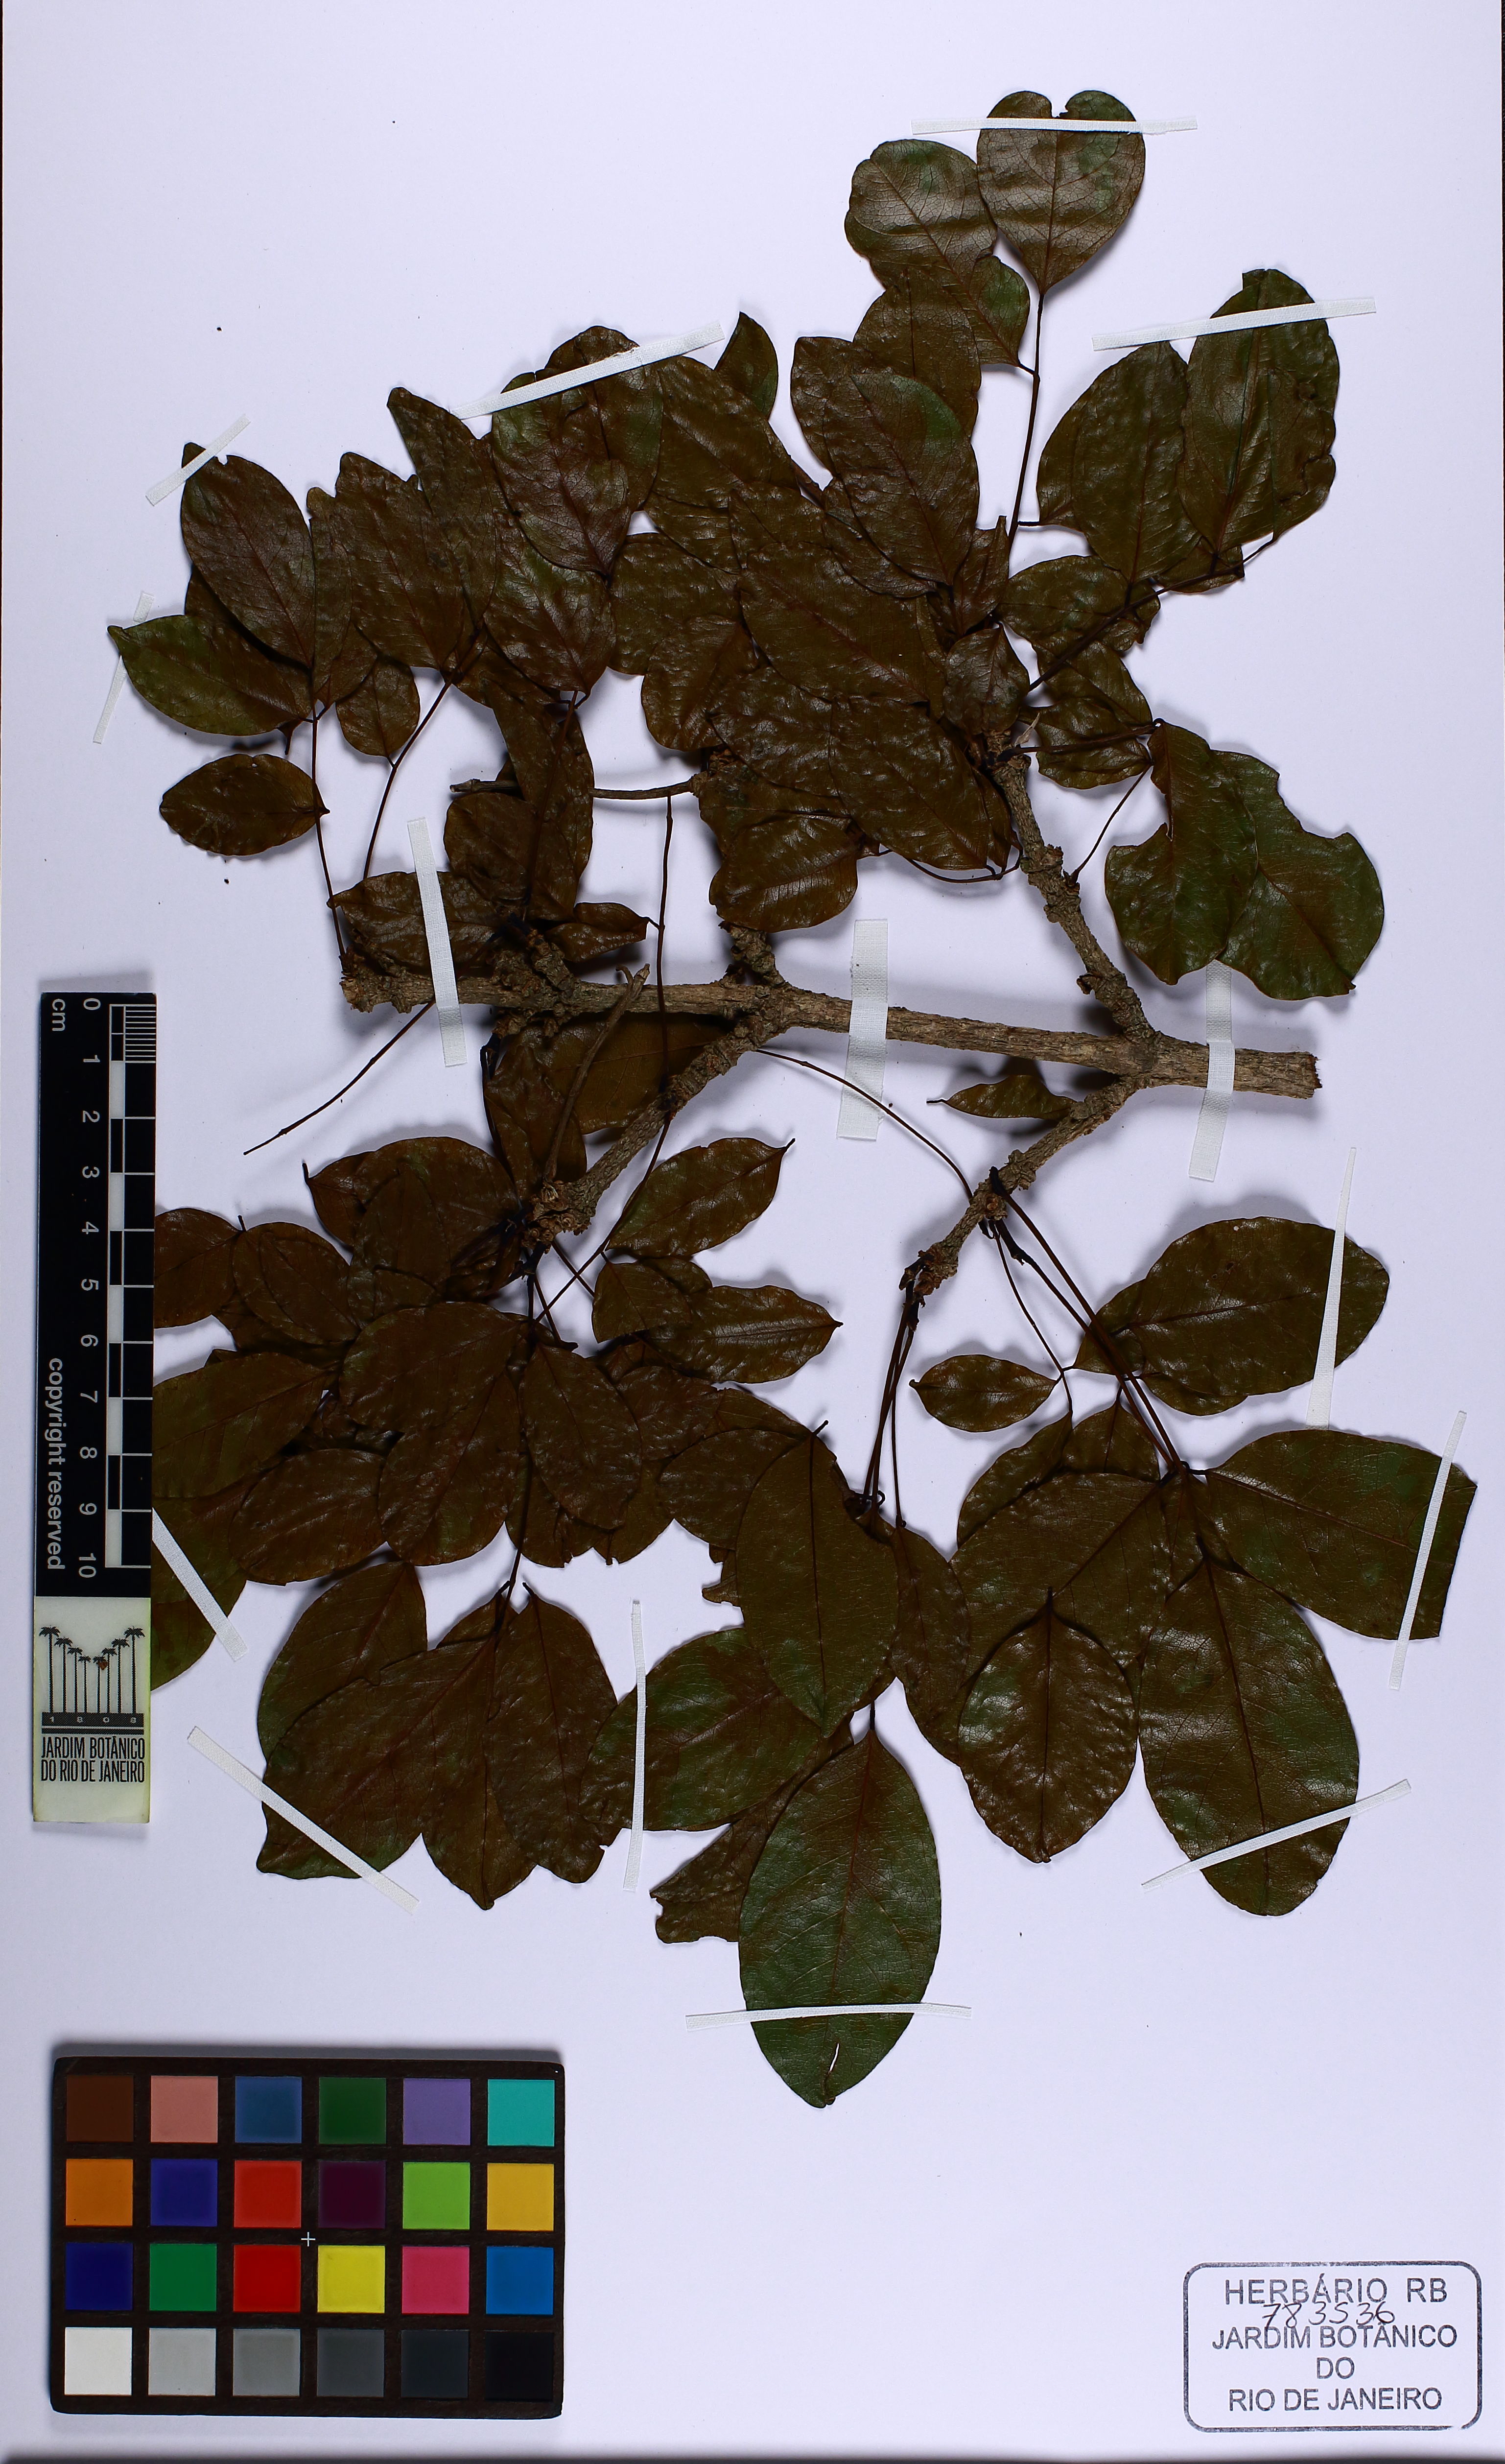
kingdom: Plantae
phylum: Tracheophyta
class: Magnoliopsida
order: Fabales
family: Fabaceae
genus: Platymiscium
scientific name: Platymiscium floribundum
